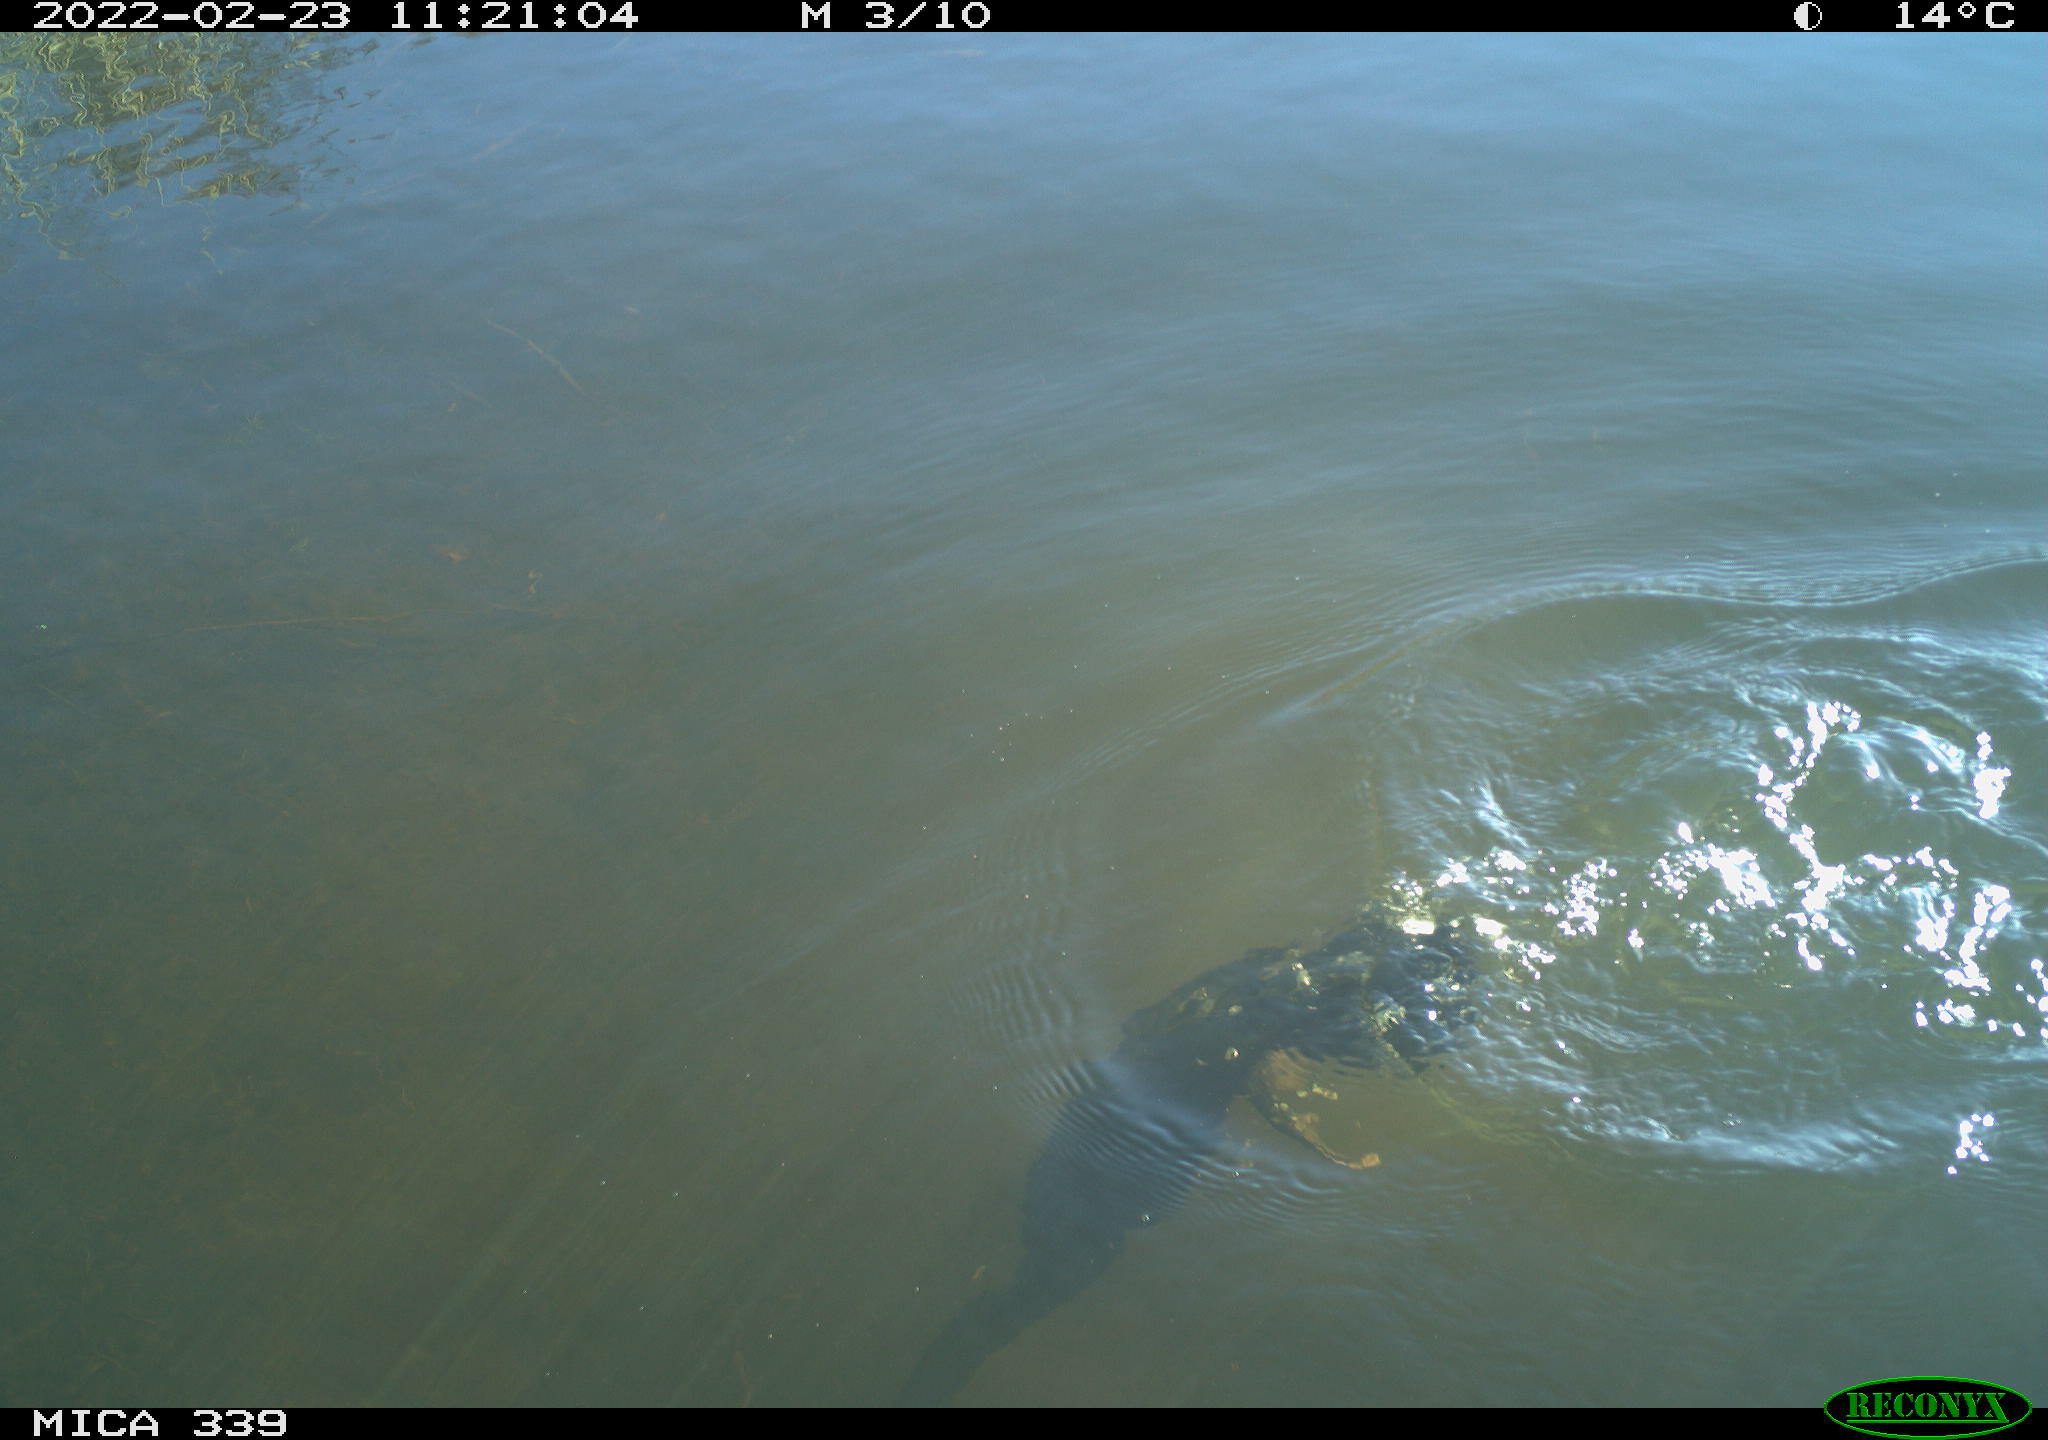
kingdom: Animalia
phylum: Chordata
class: Aves
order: Suliformes
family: Phalacrocoracidae
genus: Phalacrocorax
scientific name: Phalacrocorax carbo
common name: Great cormorant
